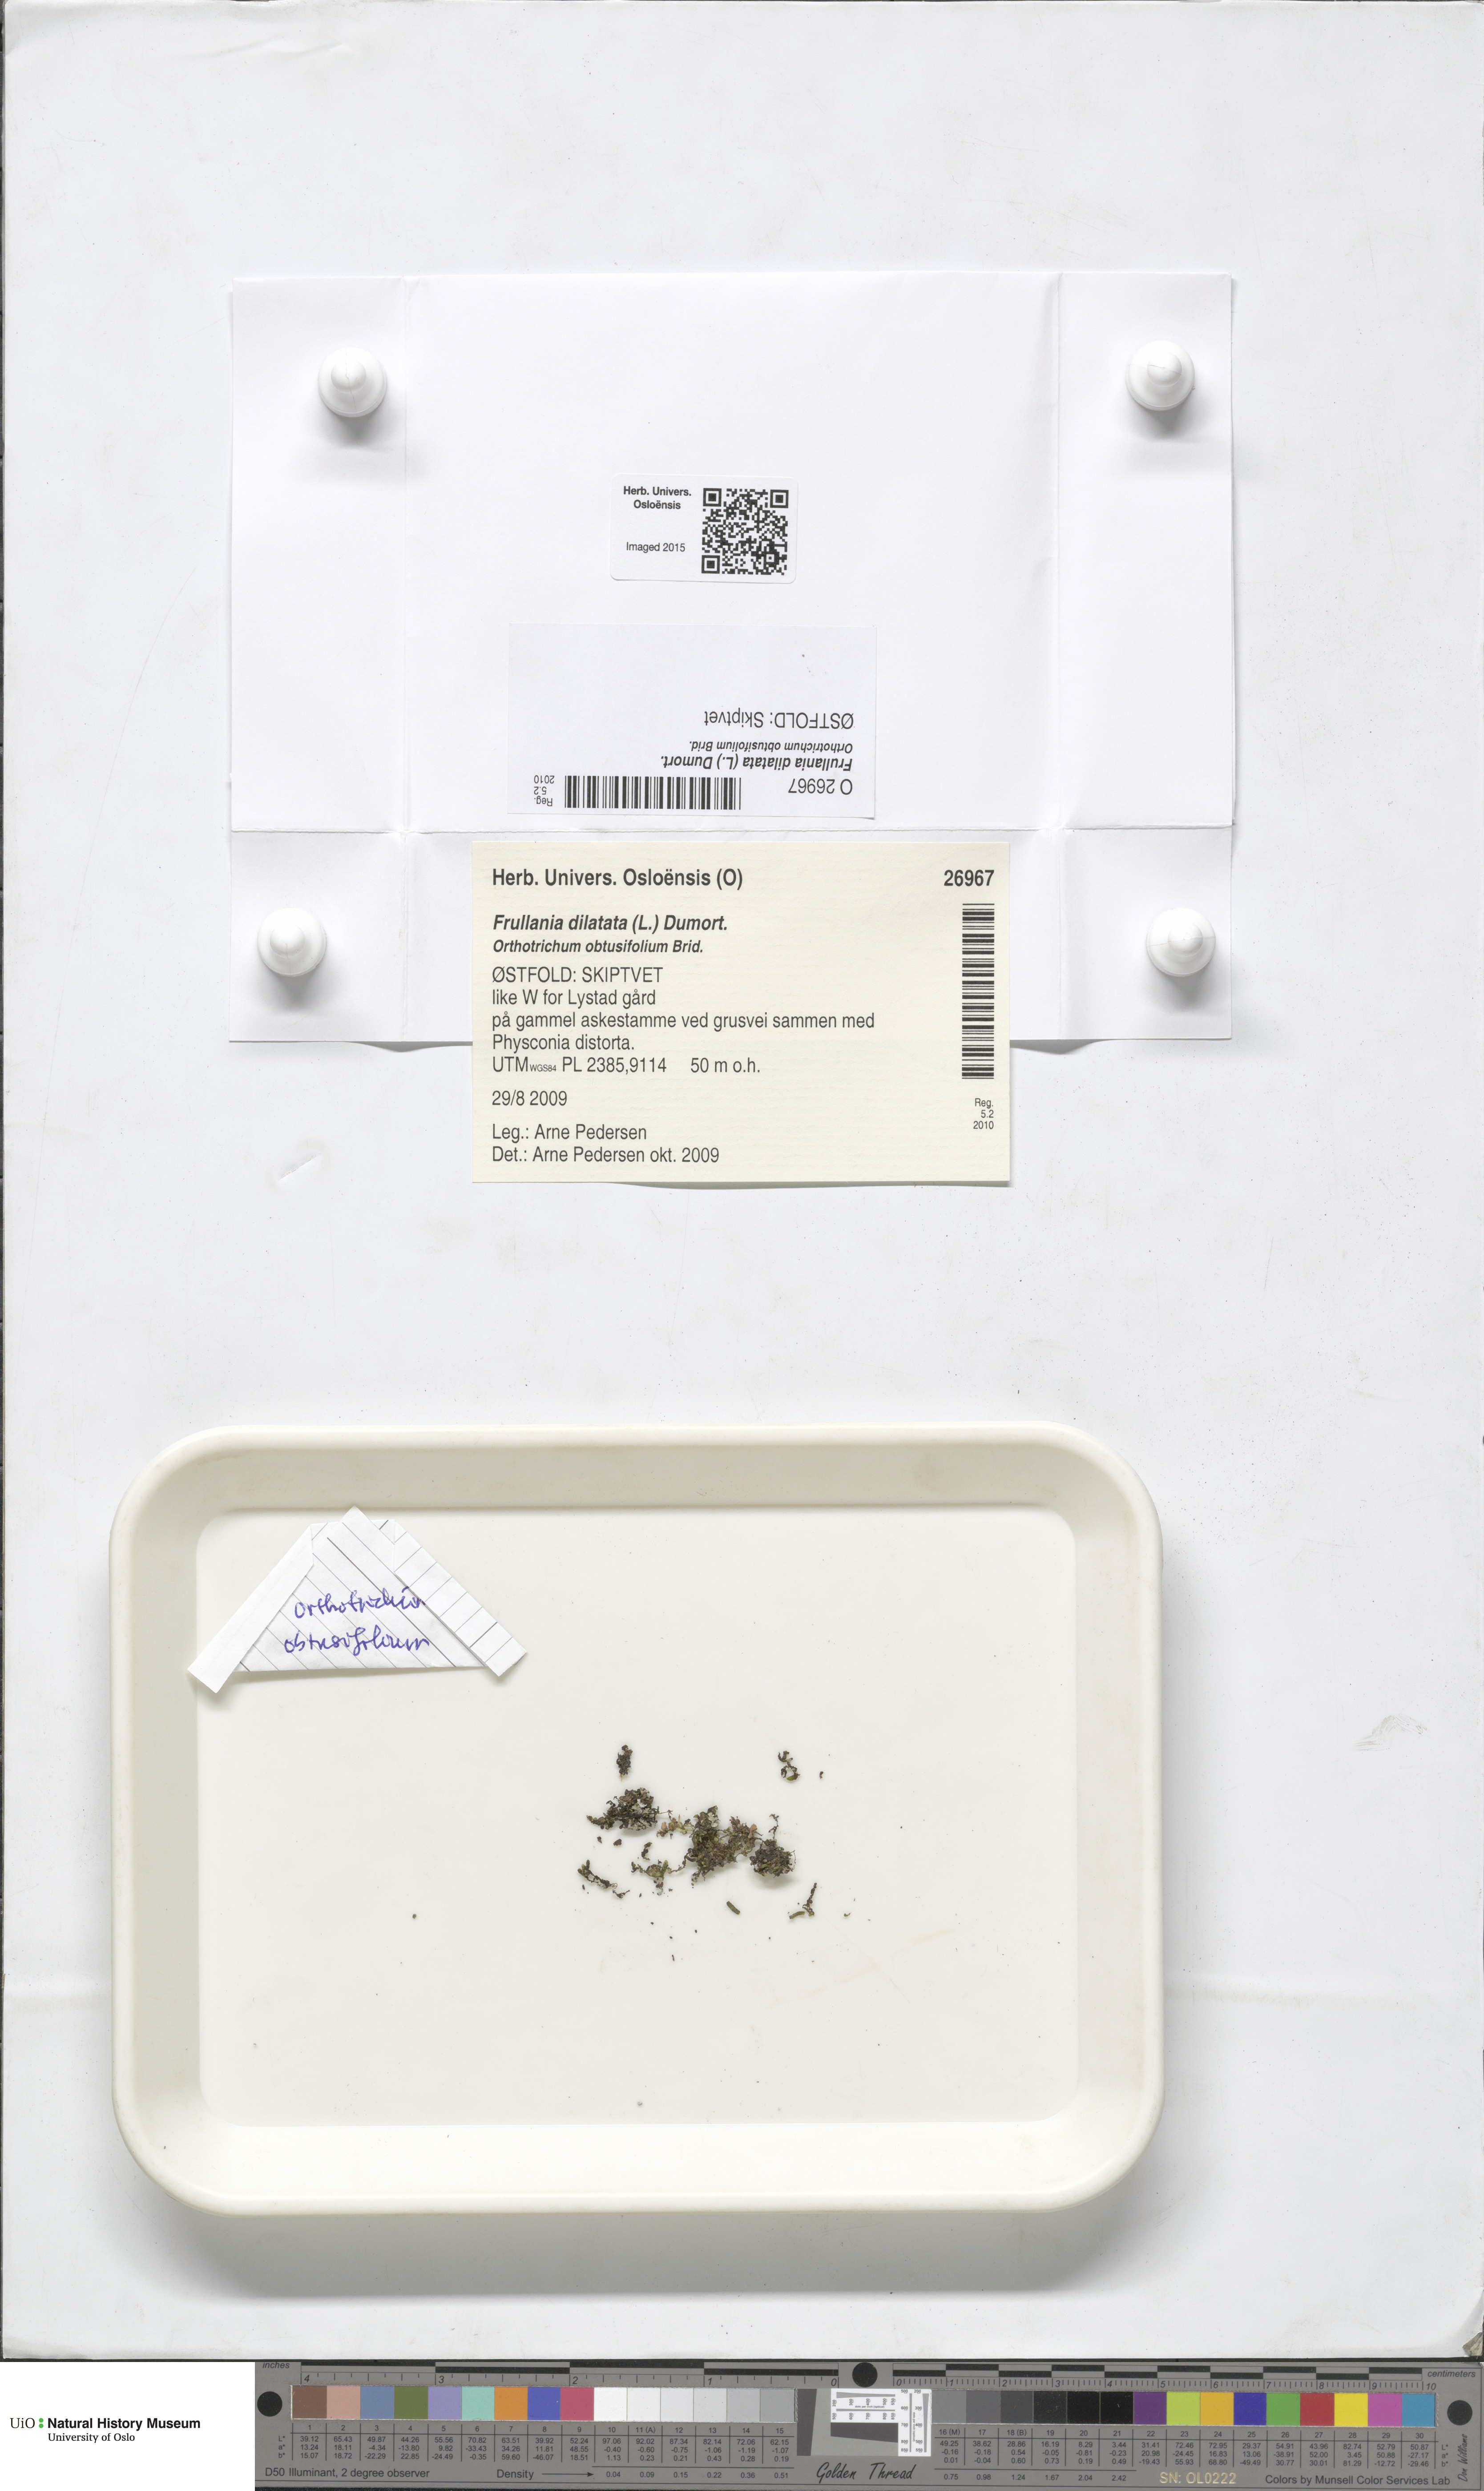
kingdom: Plantae
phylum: Marchantiophyta
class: Jungermanniopsida
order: Porellales
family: Frullaniaceae
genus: Frullania
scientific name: Frullania dilatata
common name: Dilated scalewort
